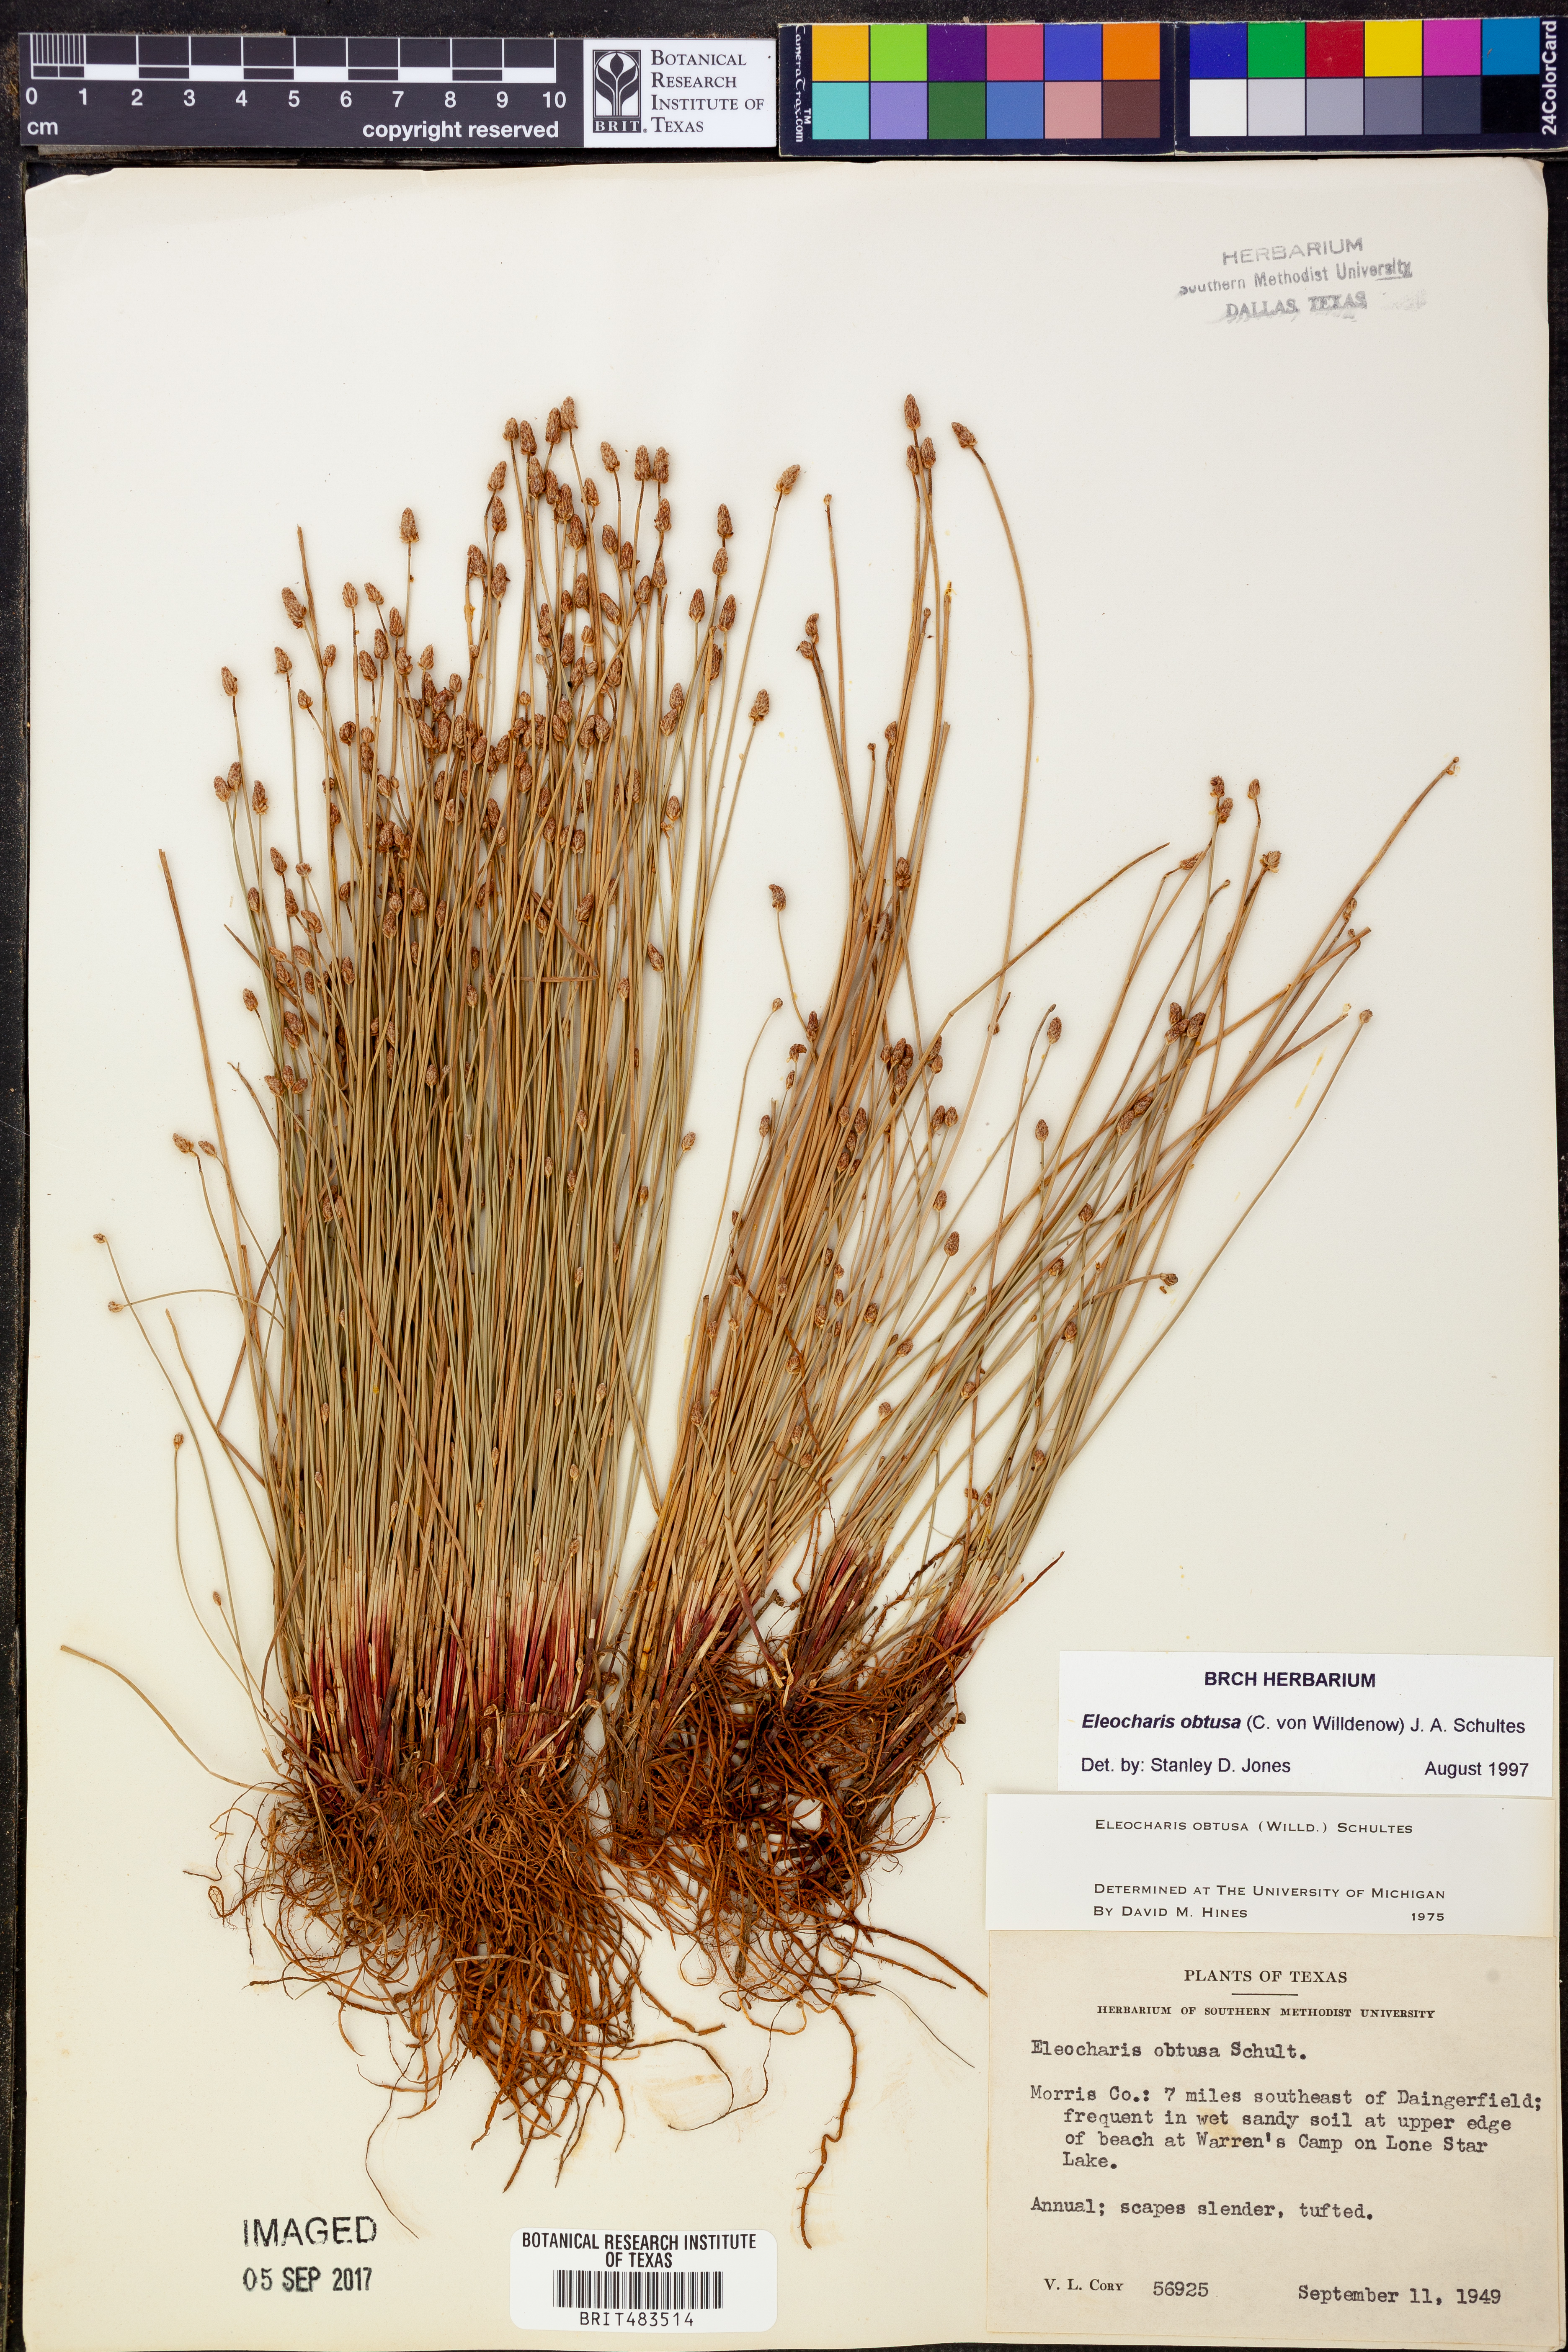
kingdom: Plantae
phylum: Tracheophyta
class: Liliopsida
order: Poales
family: Cyperaceae
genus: Eleocharis
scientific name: Eleocharis obtusa
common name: Blunt spikerush
